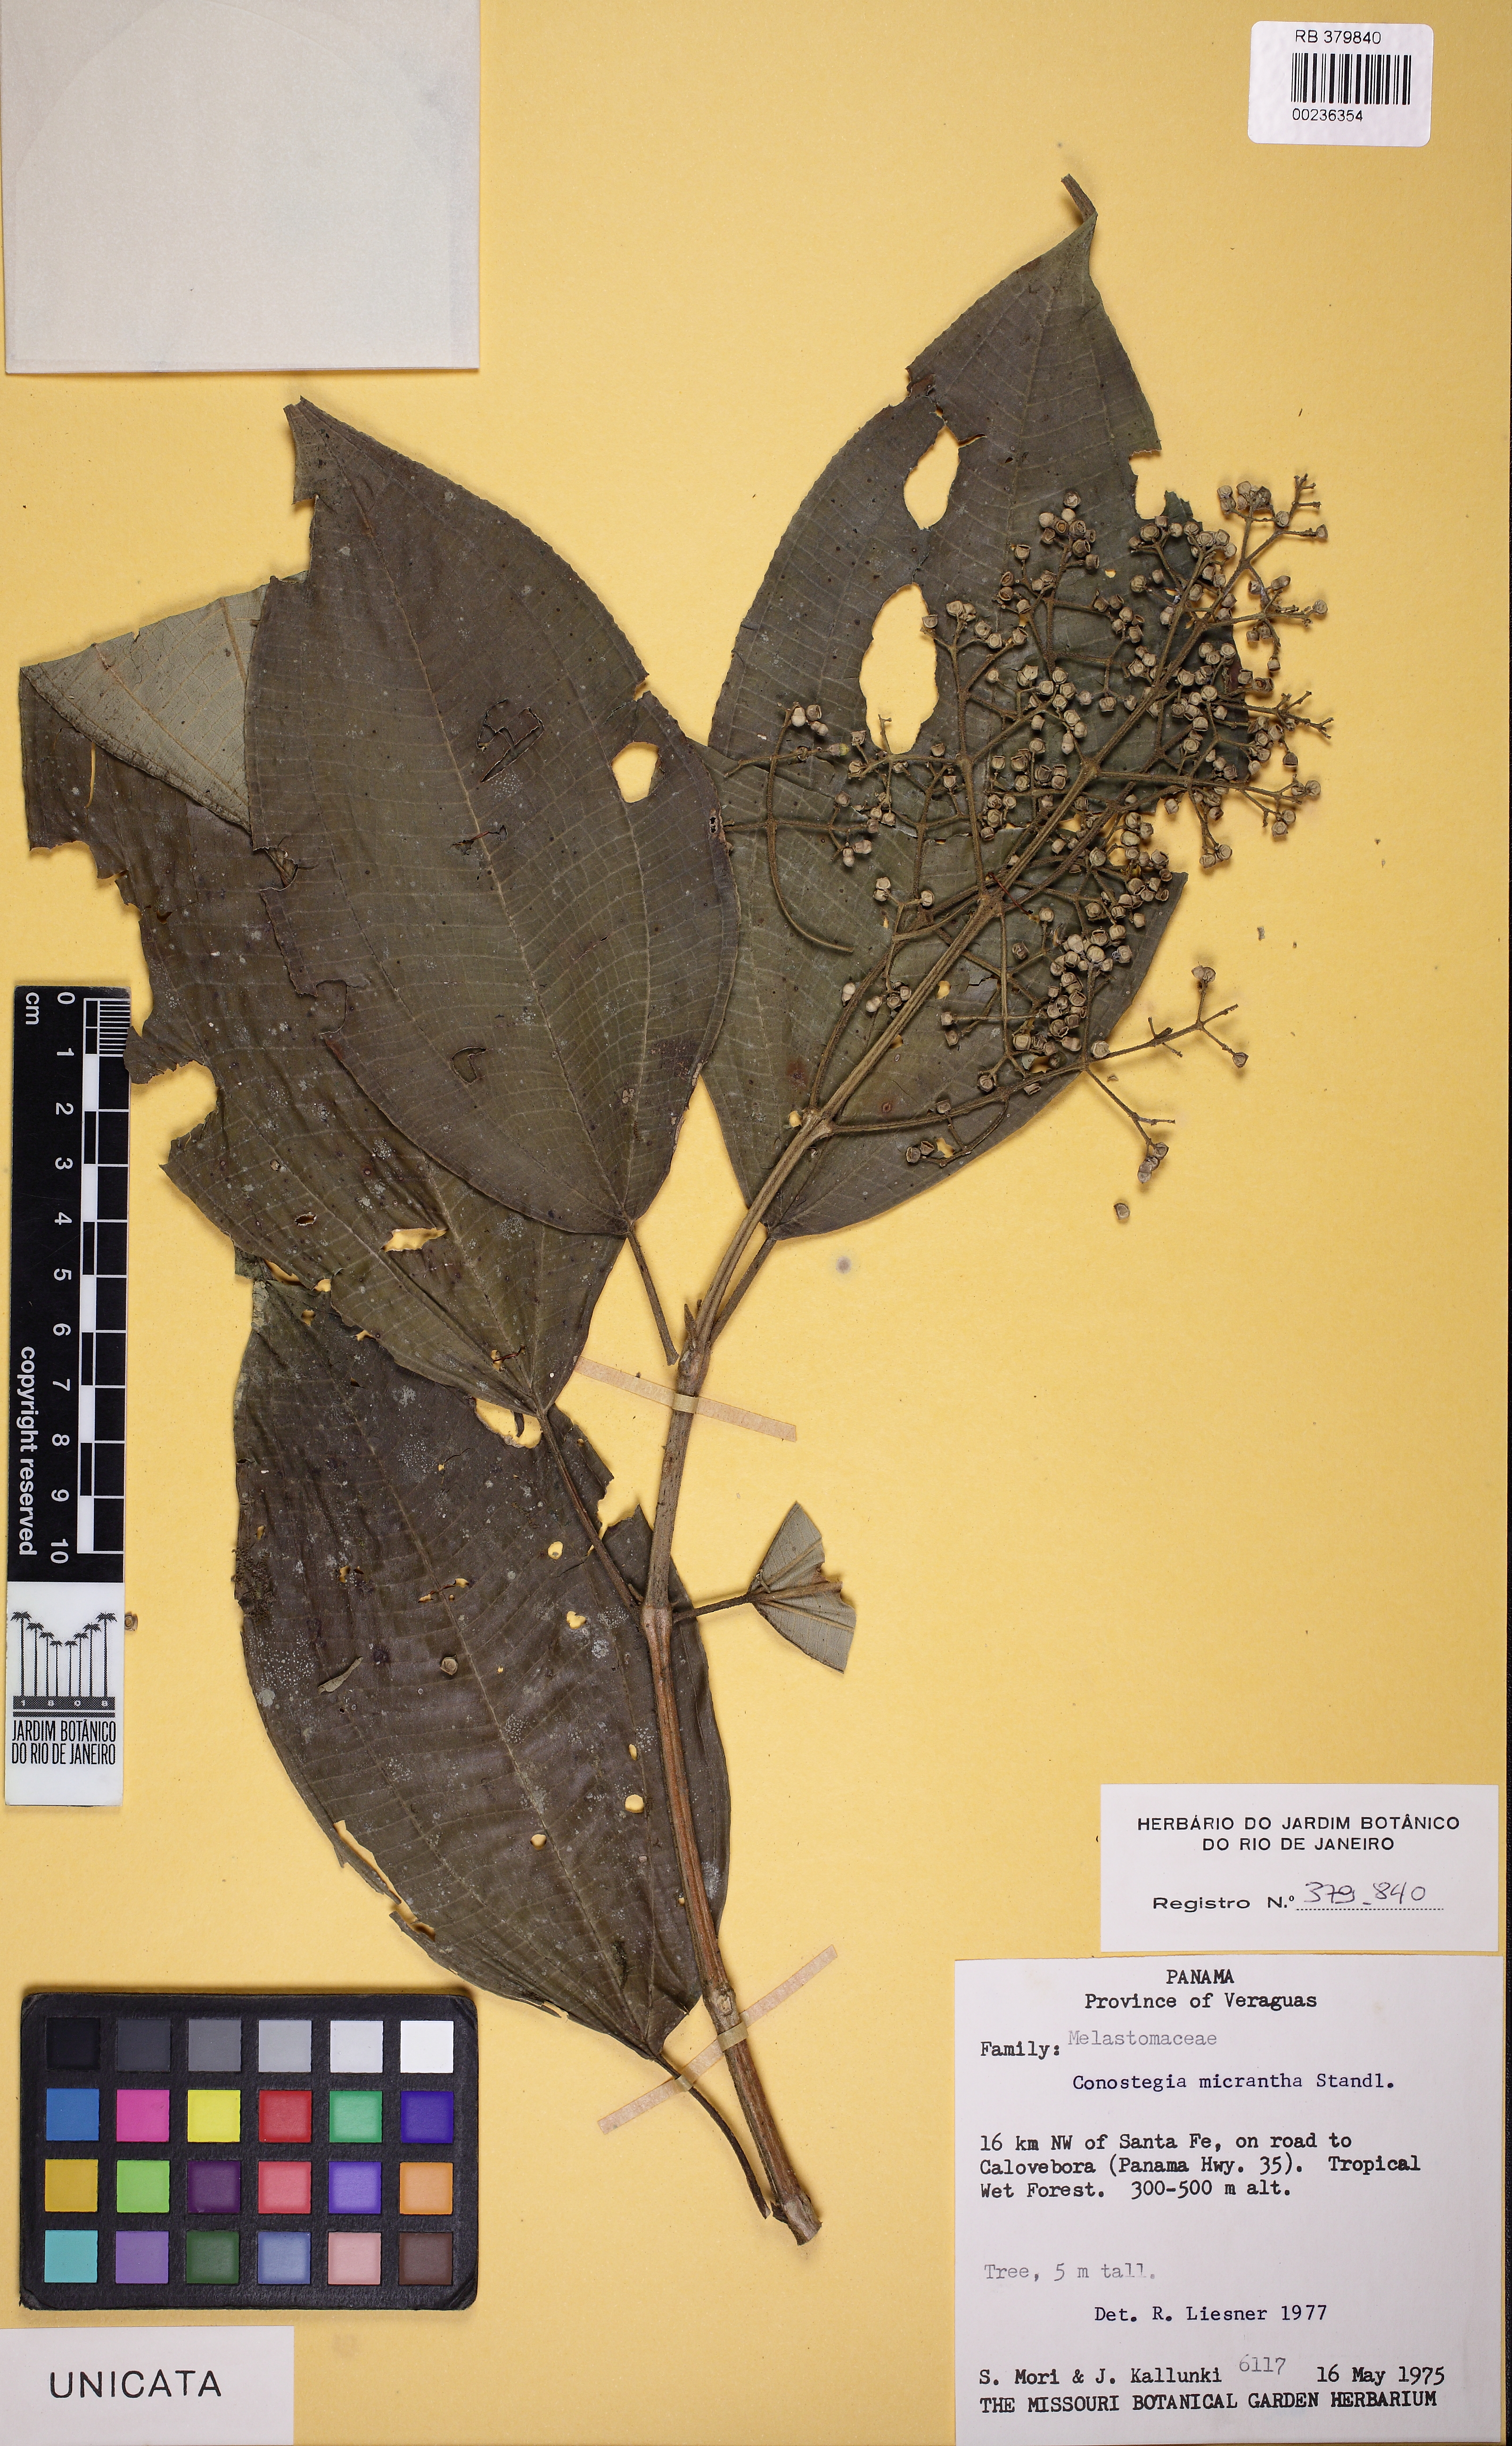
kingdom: Plantae
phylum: Tracheophyta
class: Magnoliopsida
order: Myrtales
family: Melastomataceae
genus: Miconia
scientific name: Miconia conomicrantha
